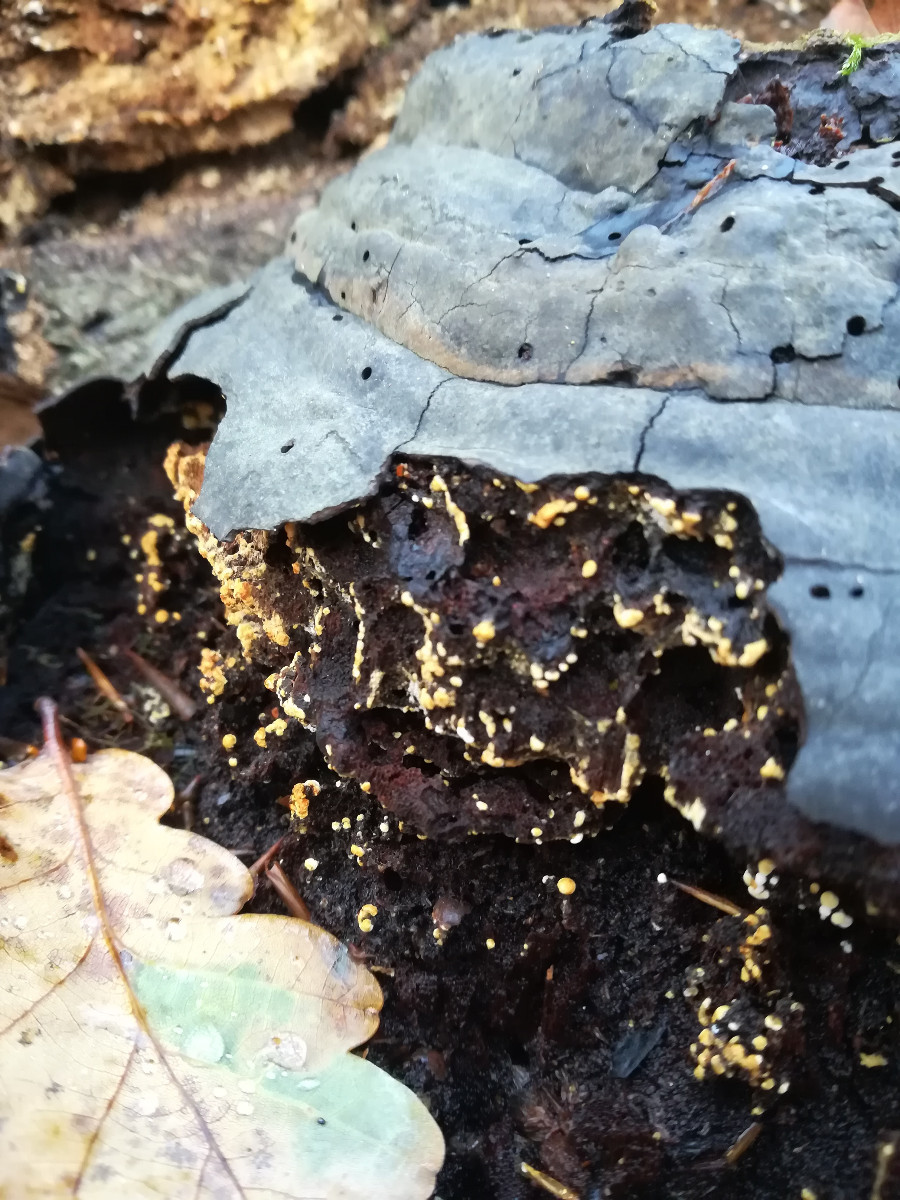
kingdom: Fungi
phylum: Basidiomycota
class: Agaricomycetes
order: Cantharellales
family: Botryobasidiaceae
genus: Botryobasidium
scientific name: Botryobasidium aureum
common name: gylden spindhinde
